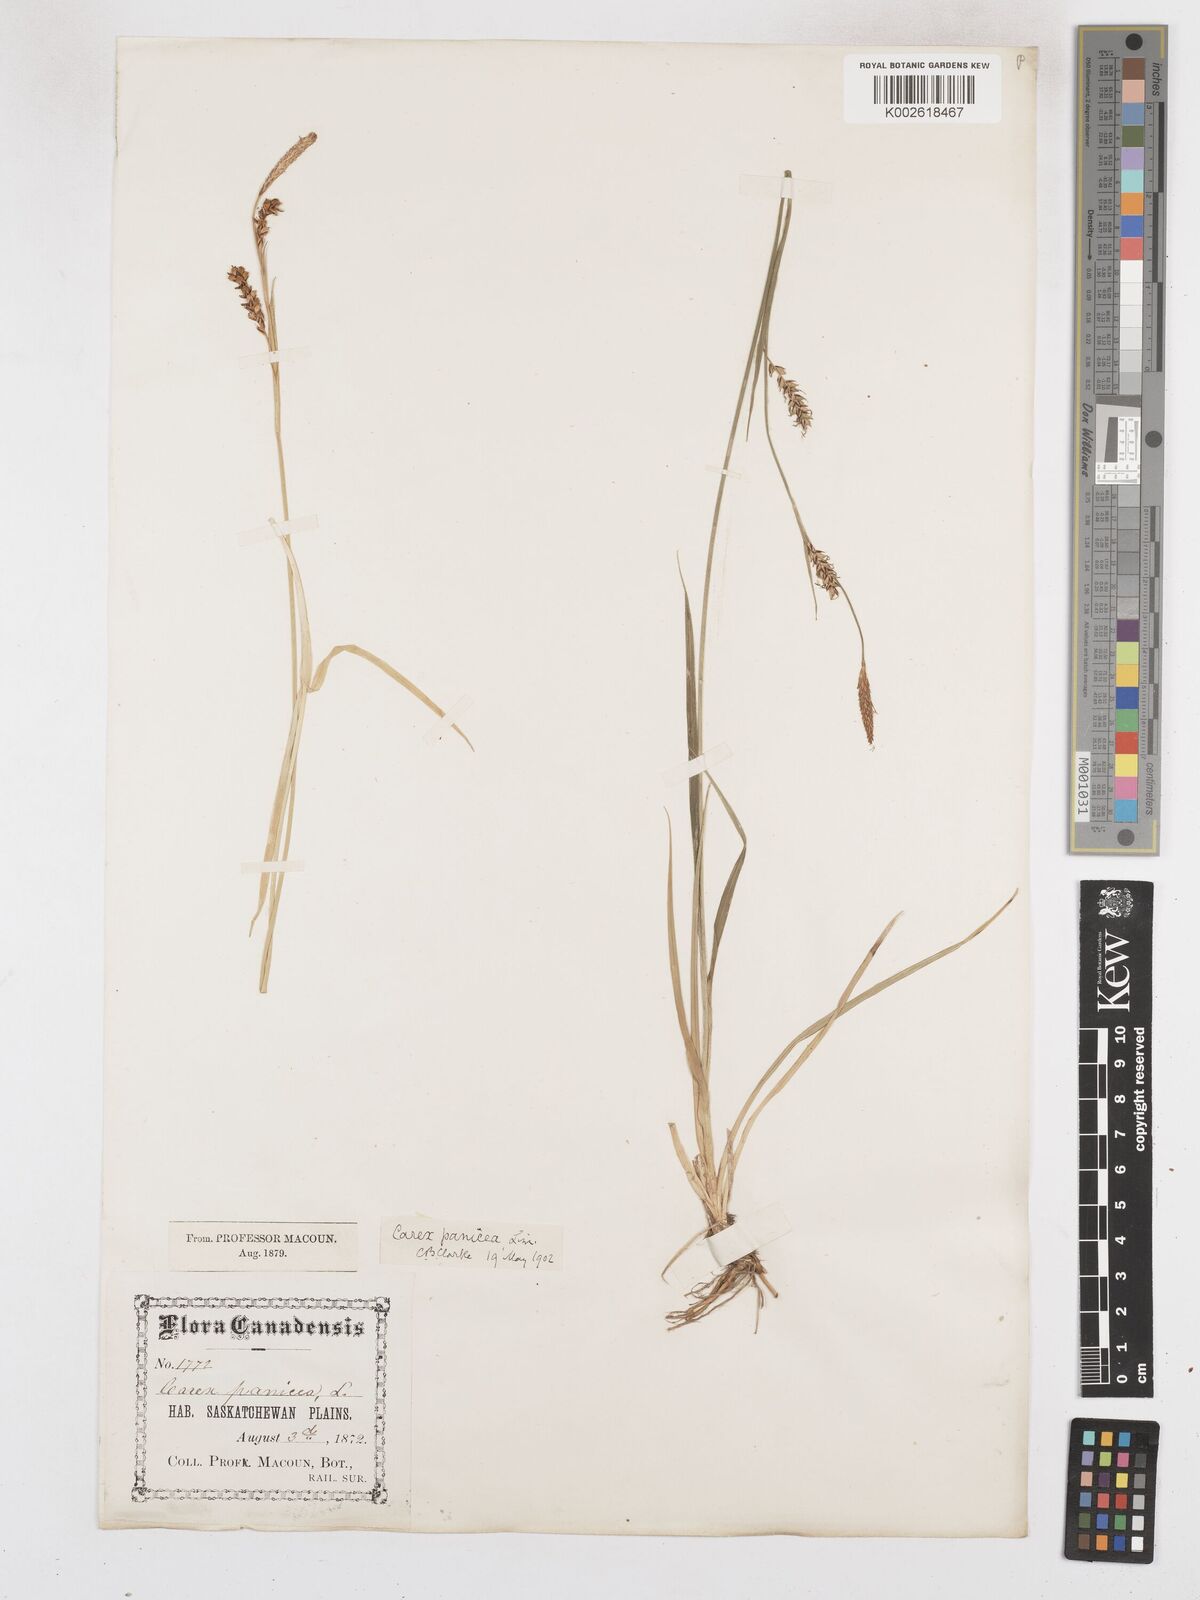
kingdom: Plantae
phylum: Tracheophyta
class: Liliopsida
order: Poales
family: Cyperaceae
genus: Carex
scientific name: Carex panicea
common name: Carnation sedge
